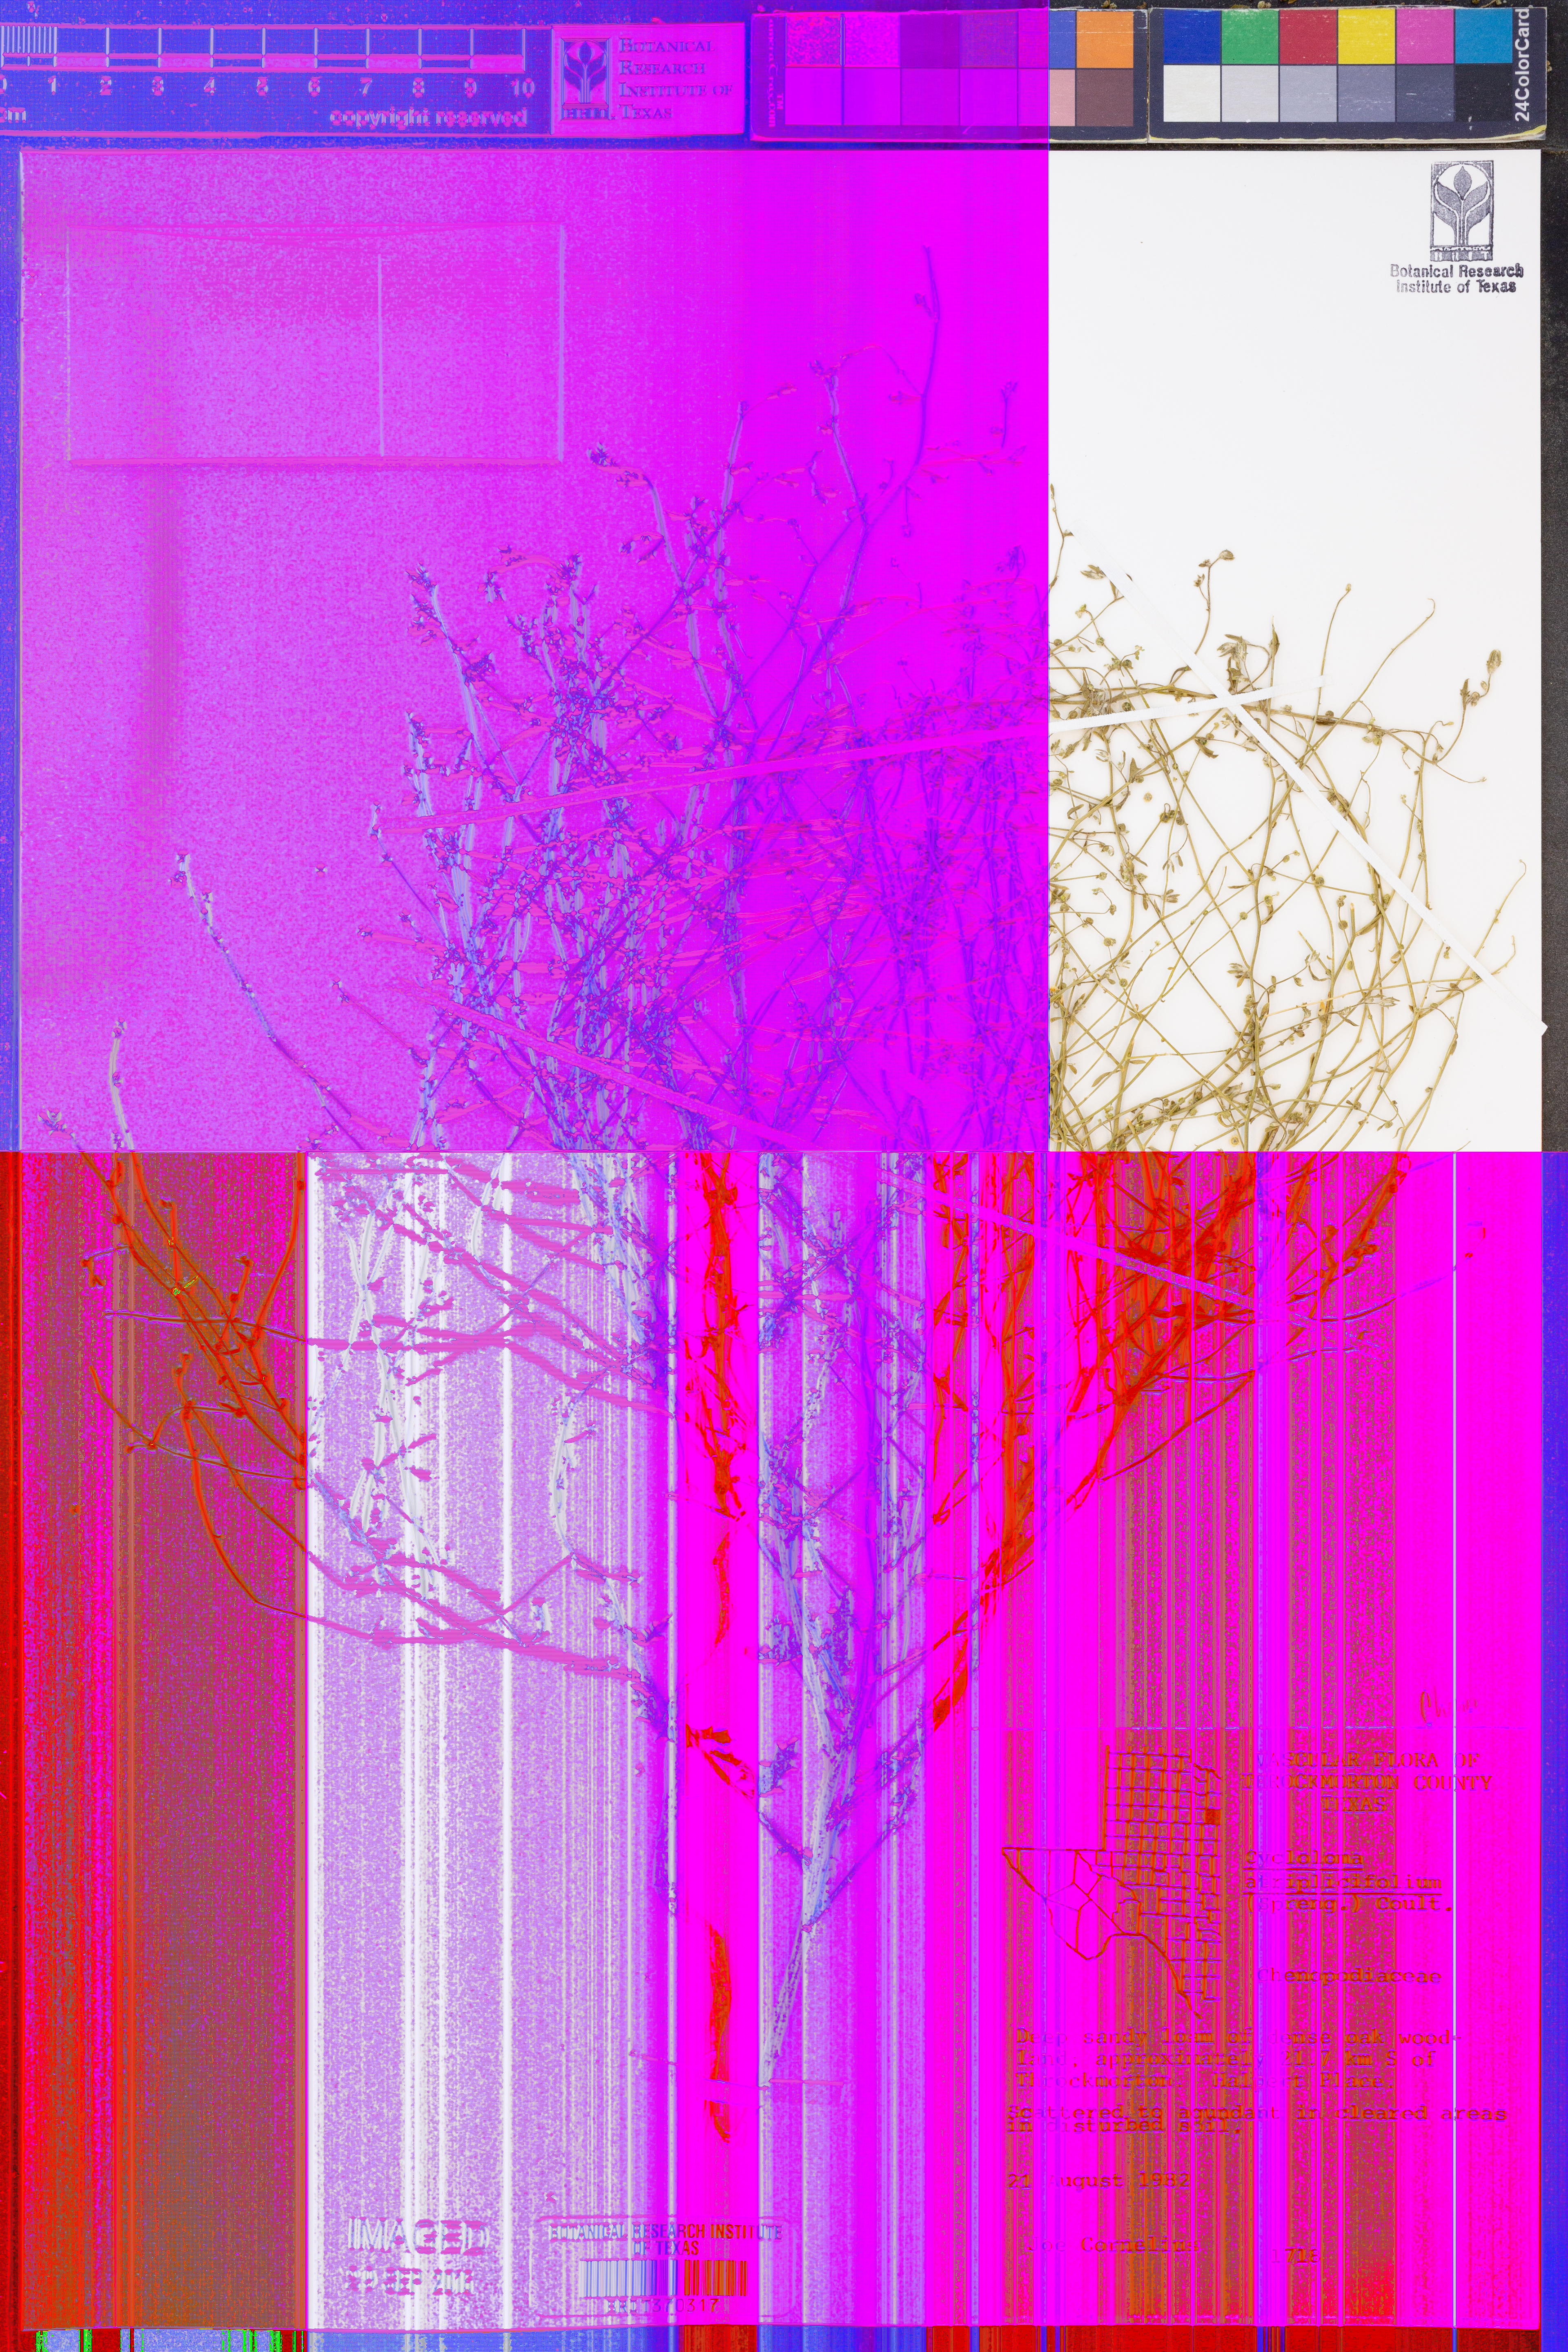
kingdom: Plantae
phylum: Tracheophyta
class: Magnoliopsida
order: Caryophyllales
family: Amaranthaceae
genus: Dysphania
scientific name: Dysphania atriplicifolia
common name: Plains tumbleweed
